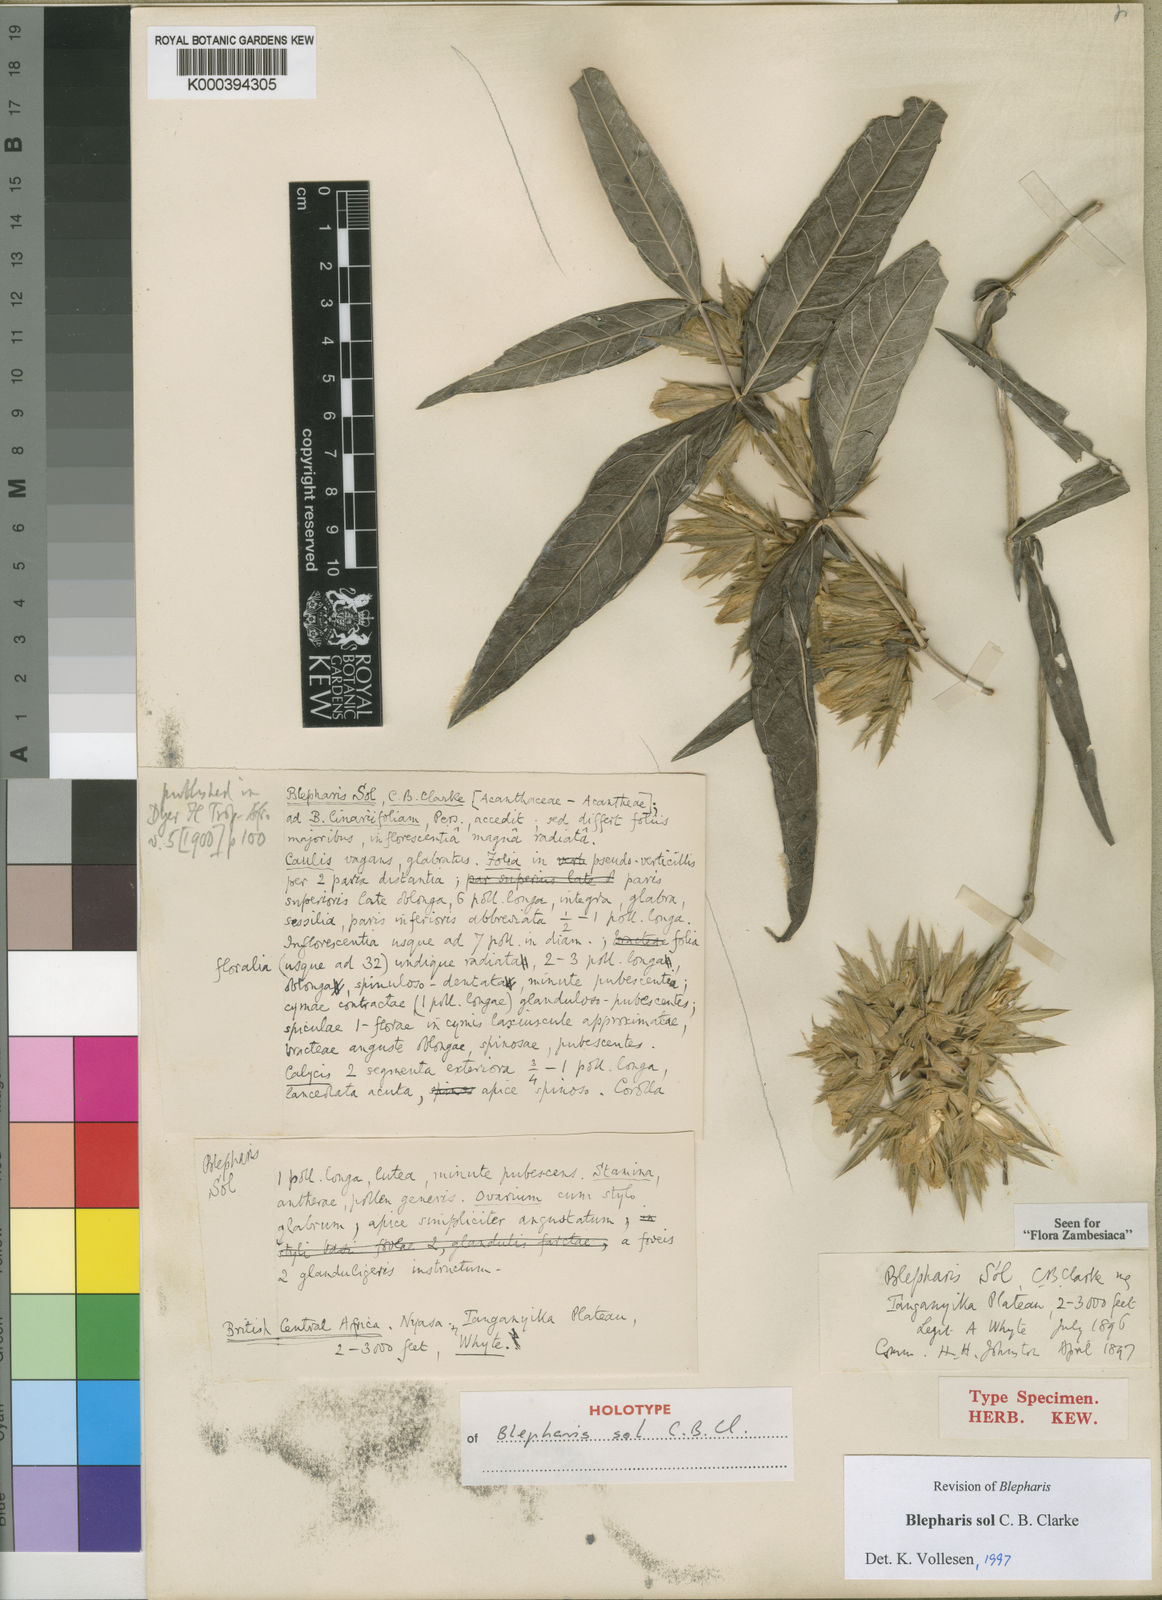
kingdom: Plantae
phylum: Tracheophyta
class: Magnoliopsida
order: Lamiales
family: Acanthaceae
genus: Blepharis
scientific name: Blepharis sol
